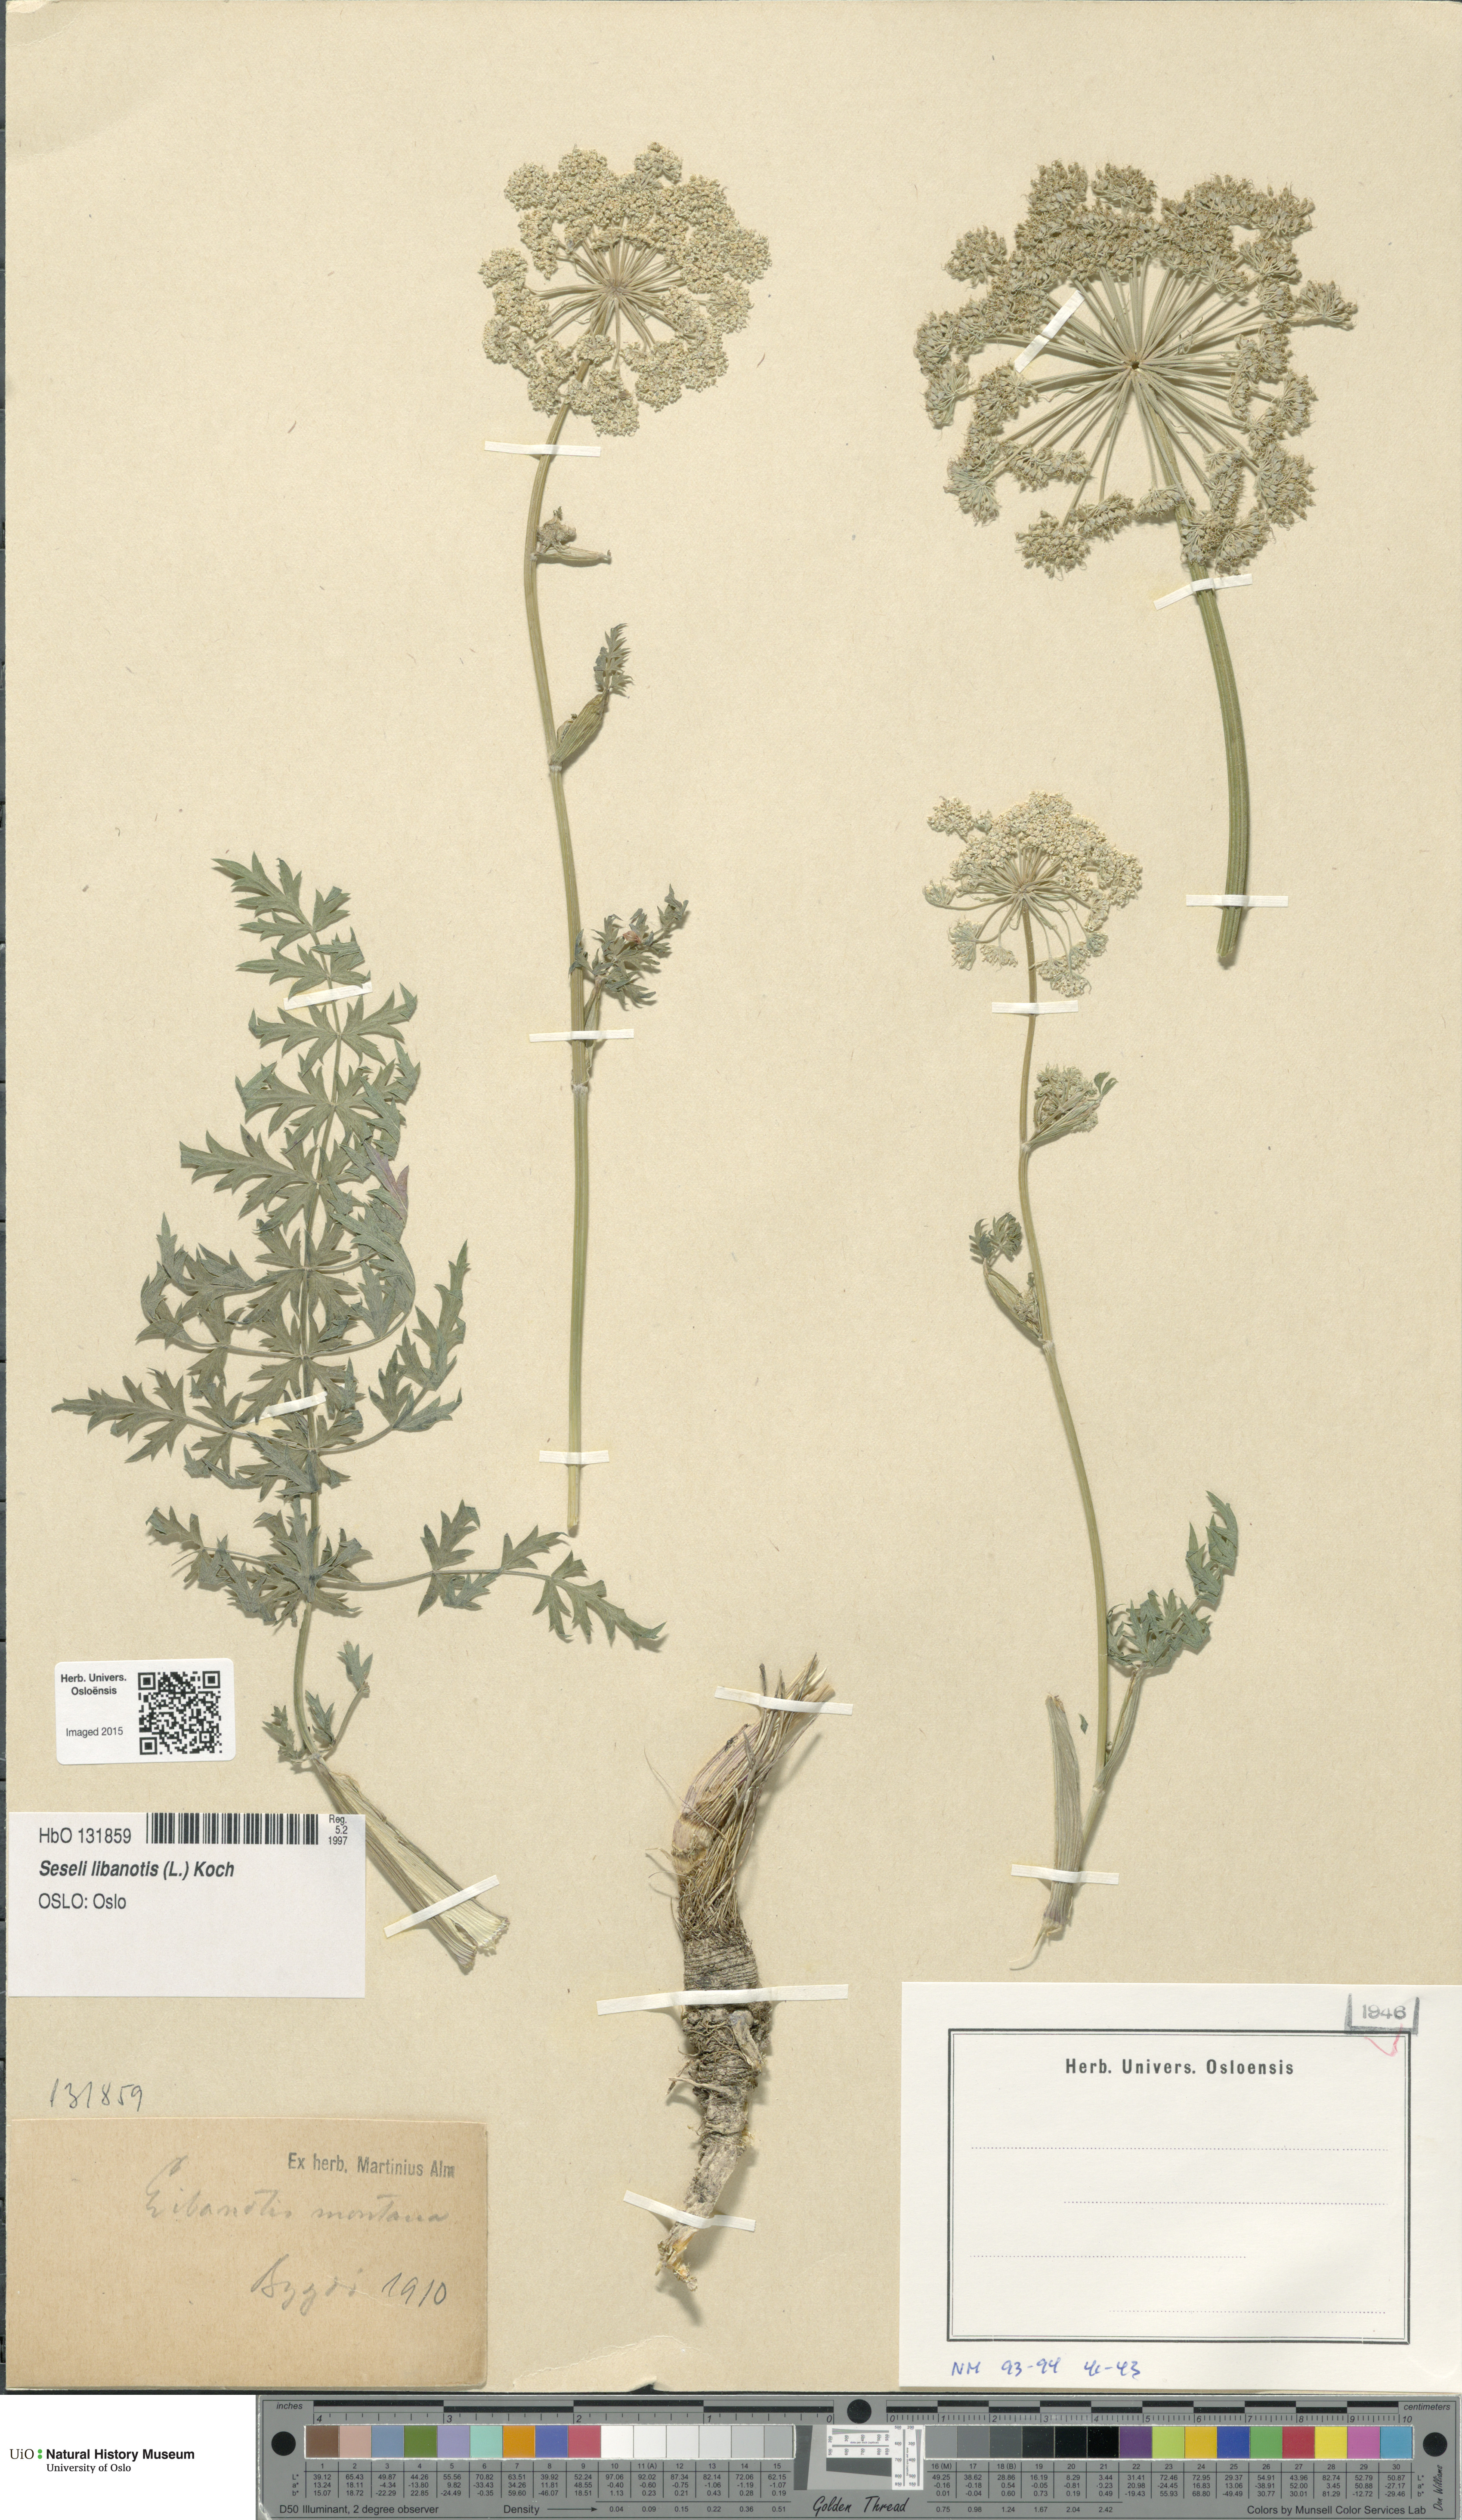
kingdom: Plantae
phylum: Tracheophyta
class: Magnoliopsida
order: Apiales
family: Apiaceae
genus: Seseli
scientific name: Seseli libanotis
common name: Mooncarrot
